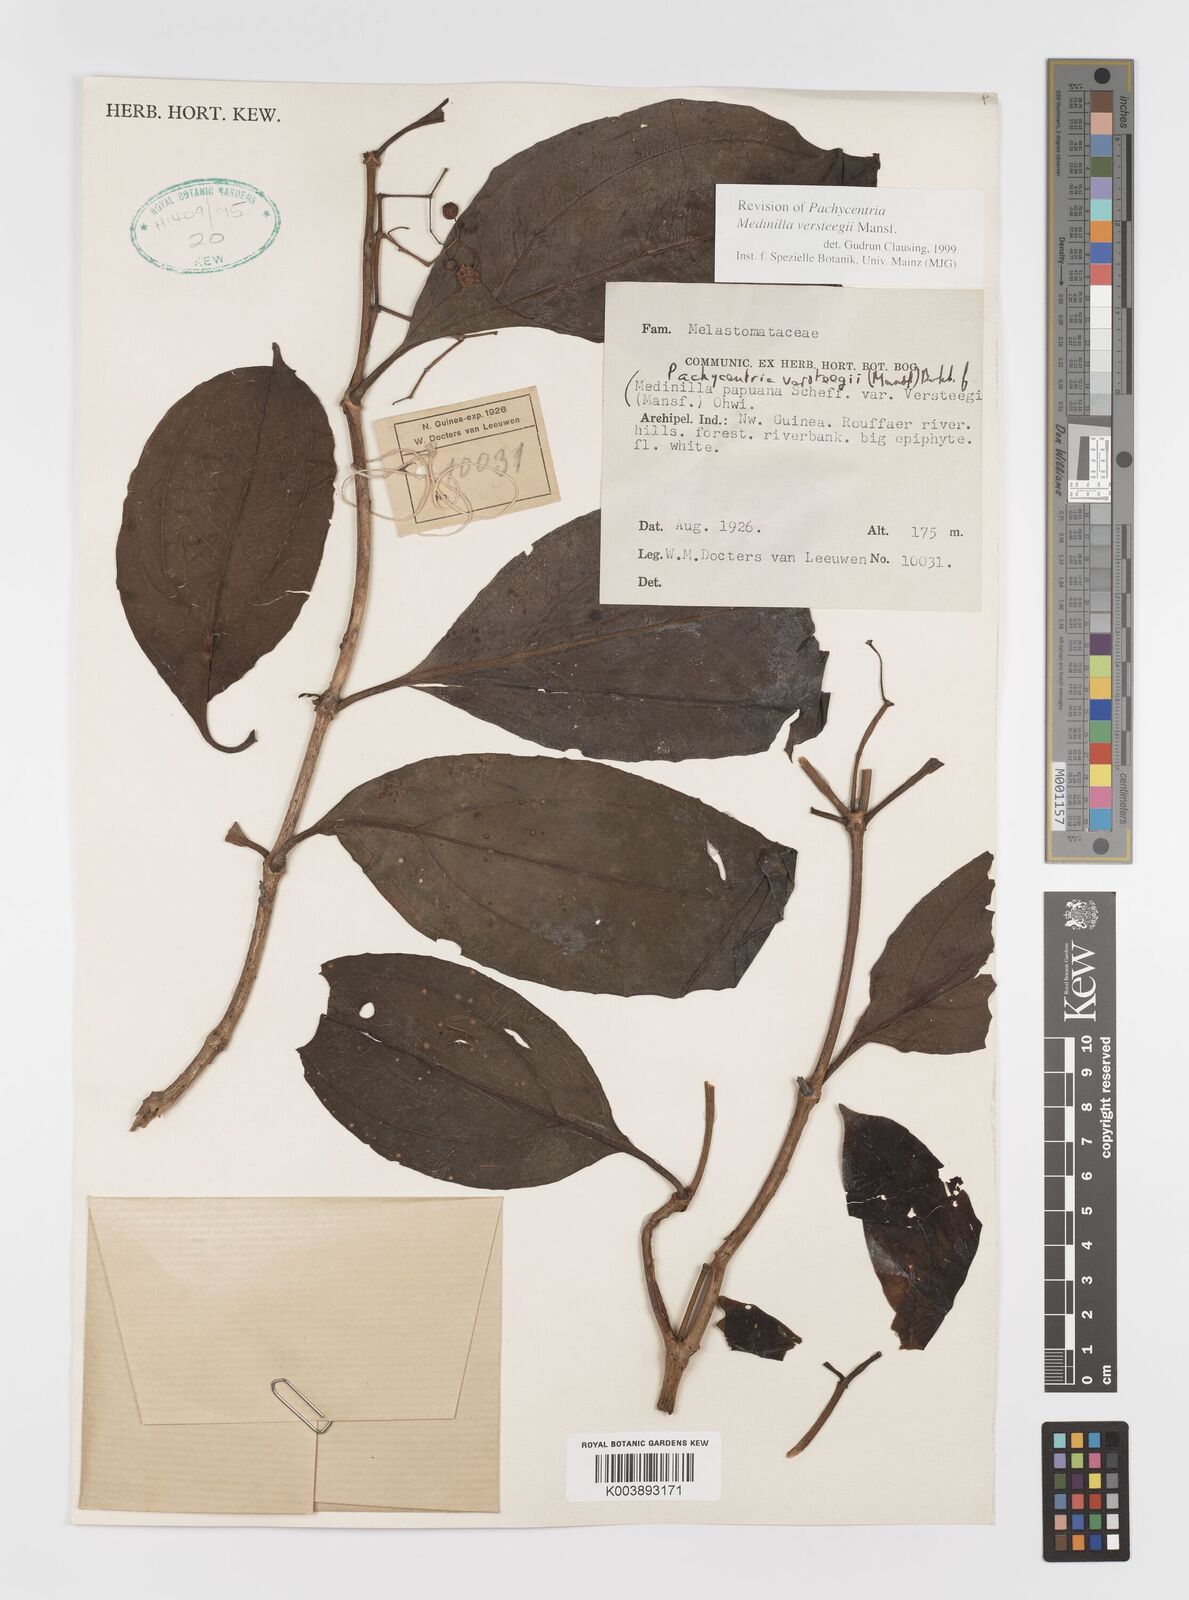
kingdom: Plantae
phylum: Tracheophyta
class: Magnoliopsida
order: Myrtales
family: Melastomataceae
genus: Medinilla
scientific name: Medinilla versteegii
